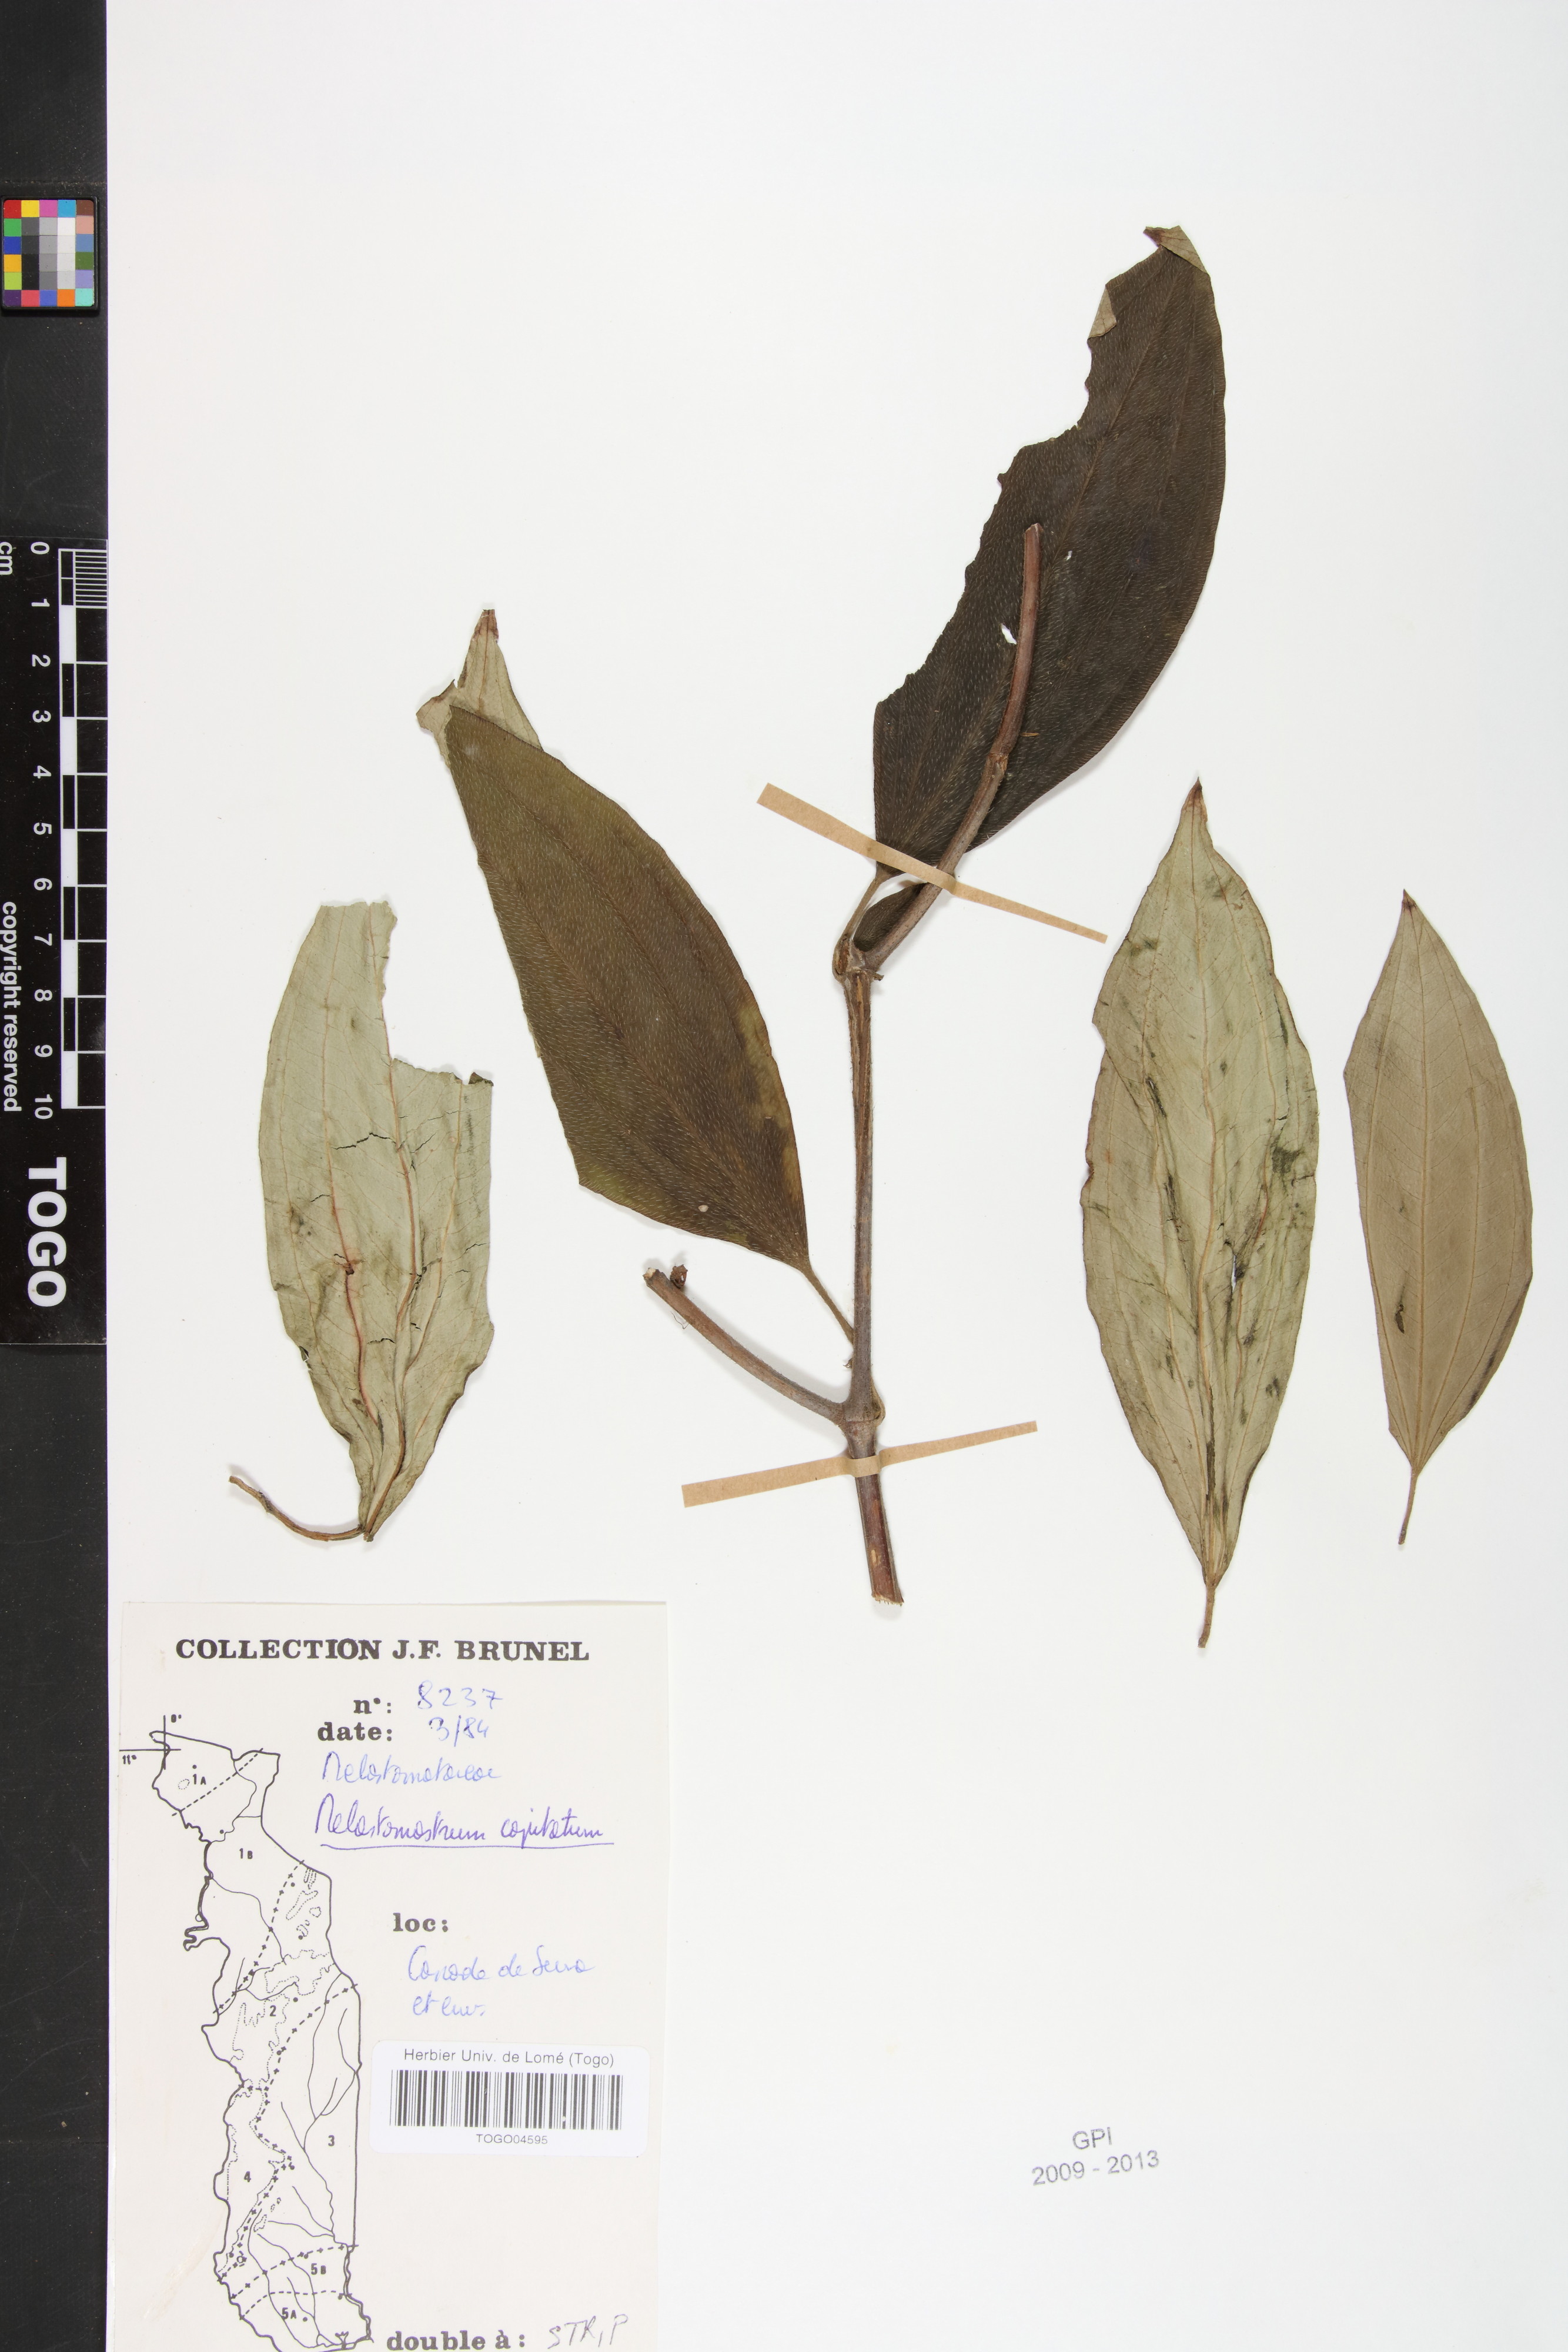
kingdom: Plantae
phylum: Tracheophyta
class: Magnoliopsida
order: Myrtales
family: Melastomataceae
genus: Melastomastrum
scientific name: Melastomastrum capitatum
